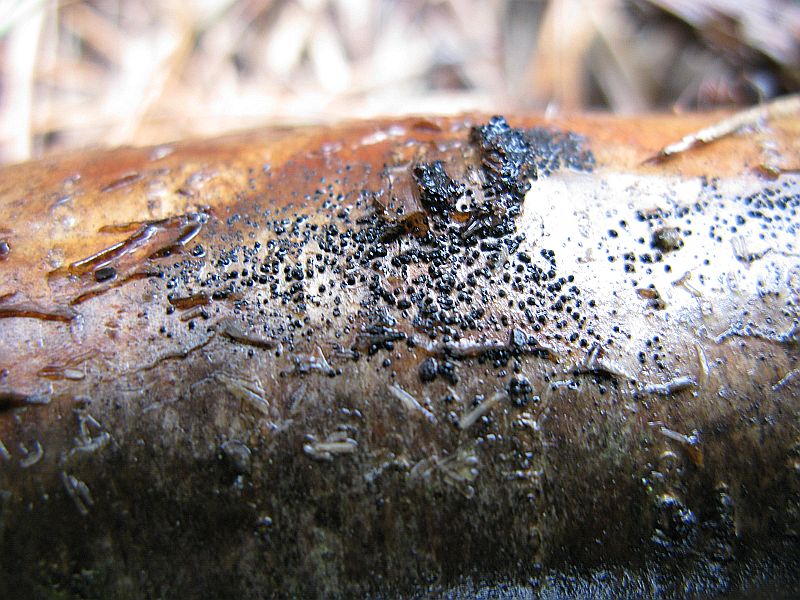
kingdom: Fungi
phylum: Ascomycota
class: Dothideomycetes
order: Pleosporales
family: Melanommataceae
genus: Melanomma
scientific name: Melanomma pulvis-pyrius
